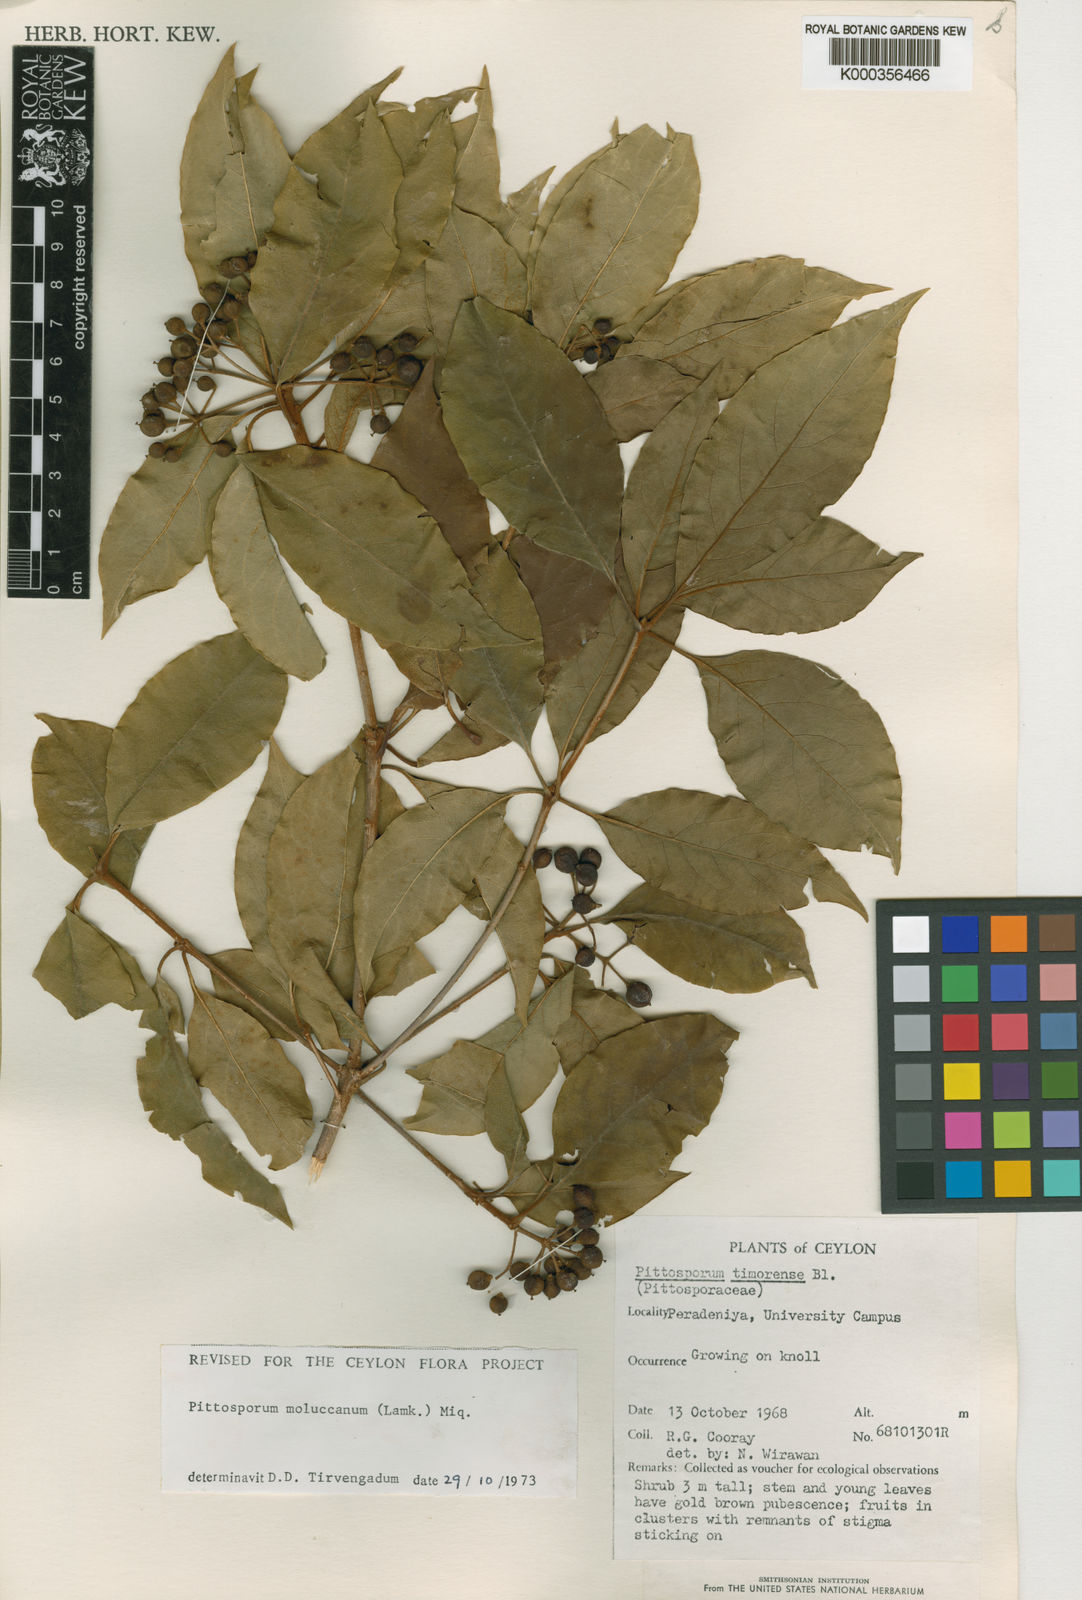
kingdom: Plantae
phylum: Tracheophyta
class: Magnoliopsida
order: Apiales
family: Pittosporaceae
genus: Pittosporum
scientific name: Pittosporum moluccanum
